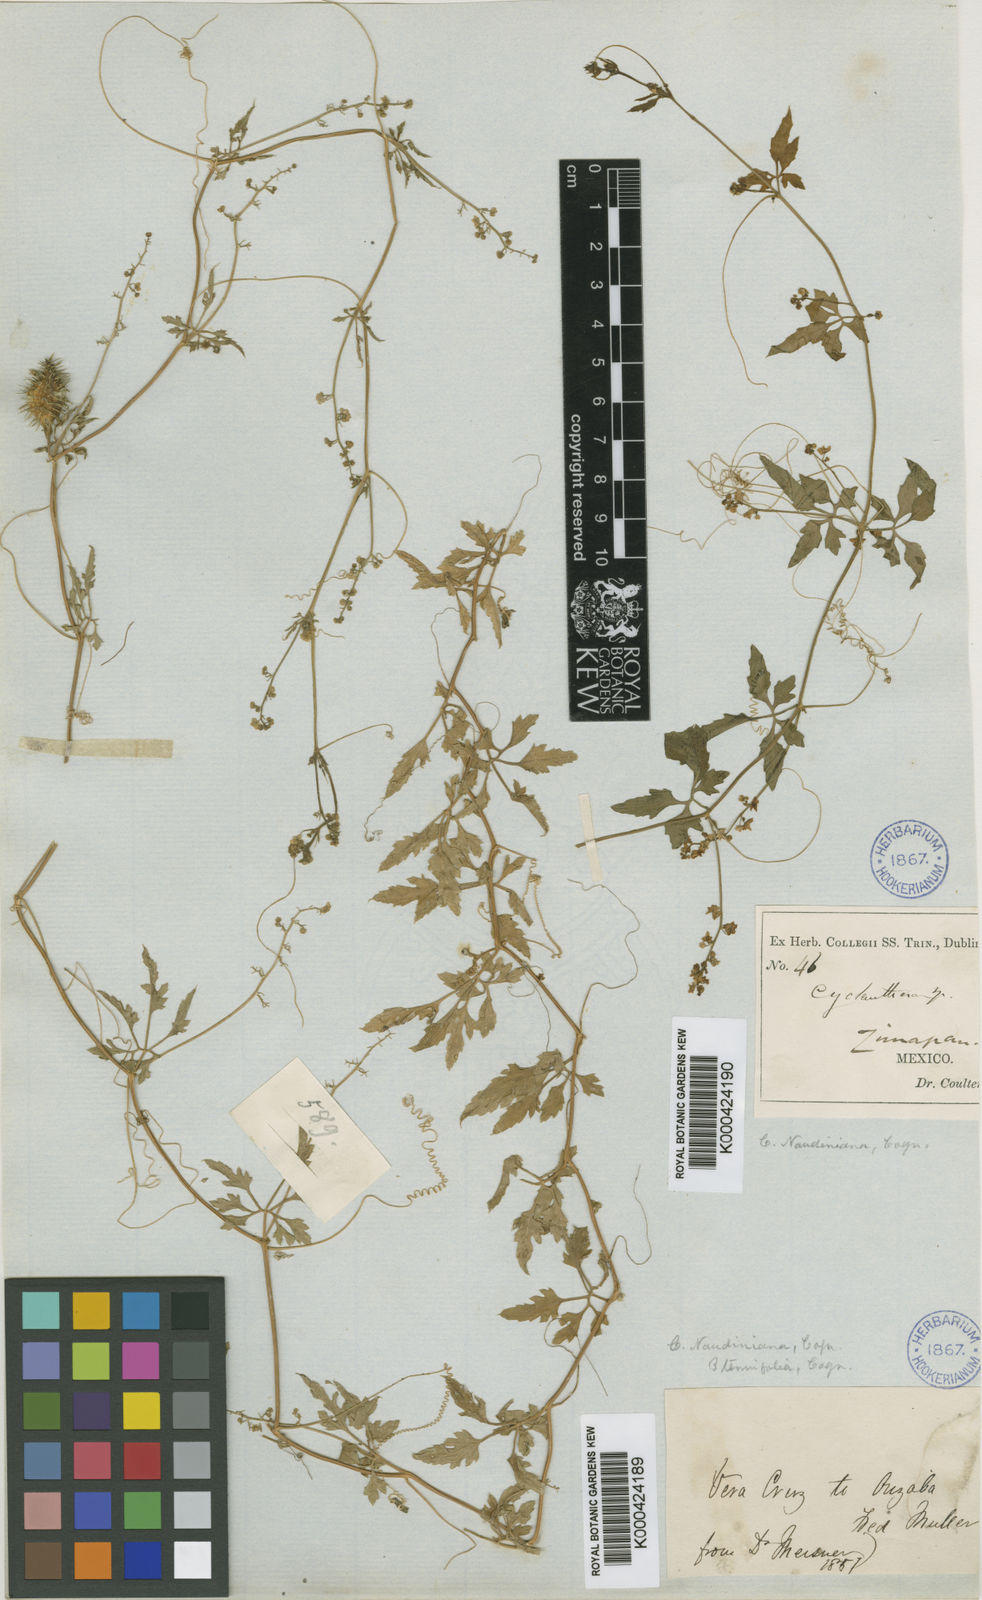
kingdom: Plantae
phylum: Tracheophyta
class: Magnoliopsida
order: Cucurbitales
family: Cucurbitaceae
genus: Cyclanthera
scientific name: Cyclanthera dissecta
